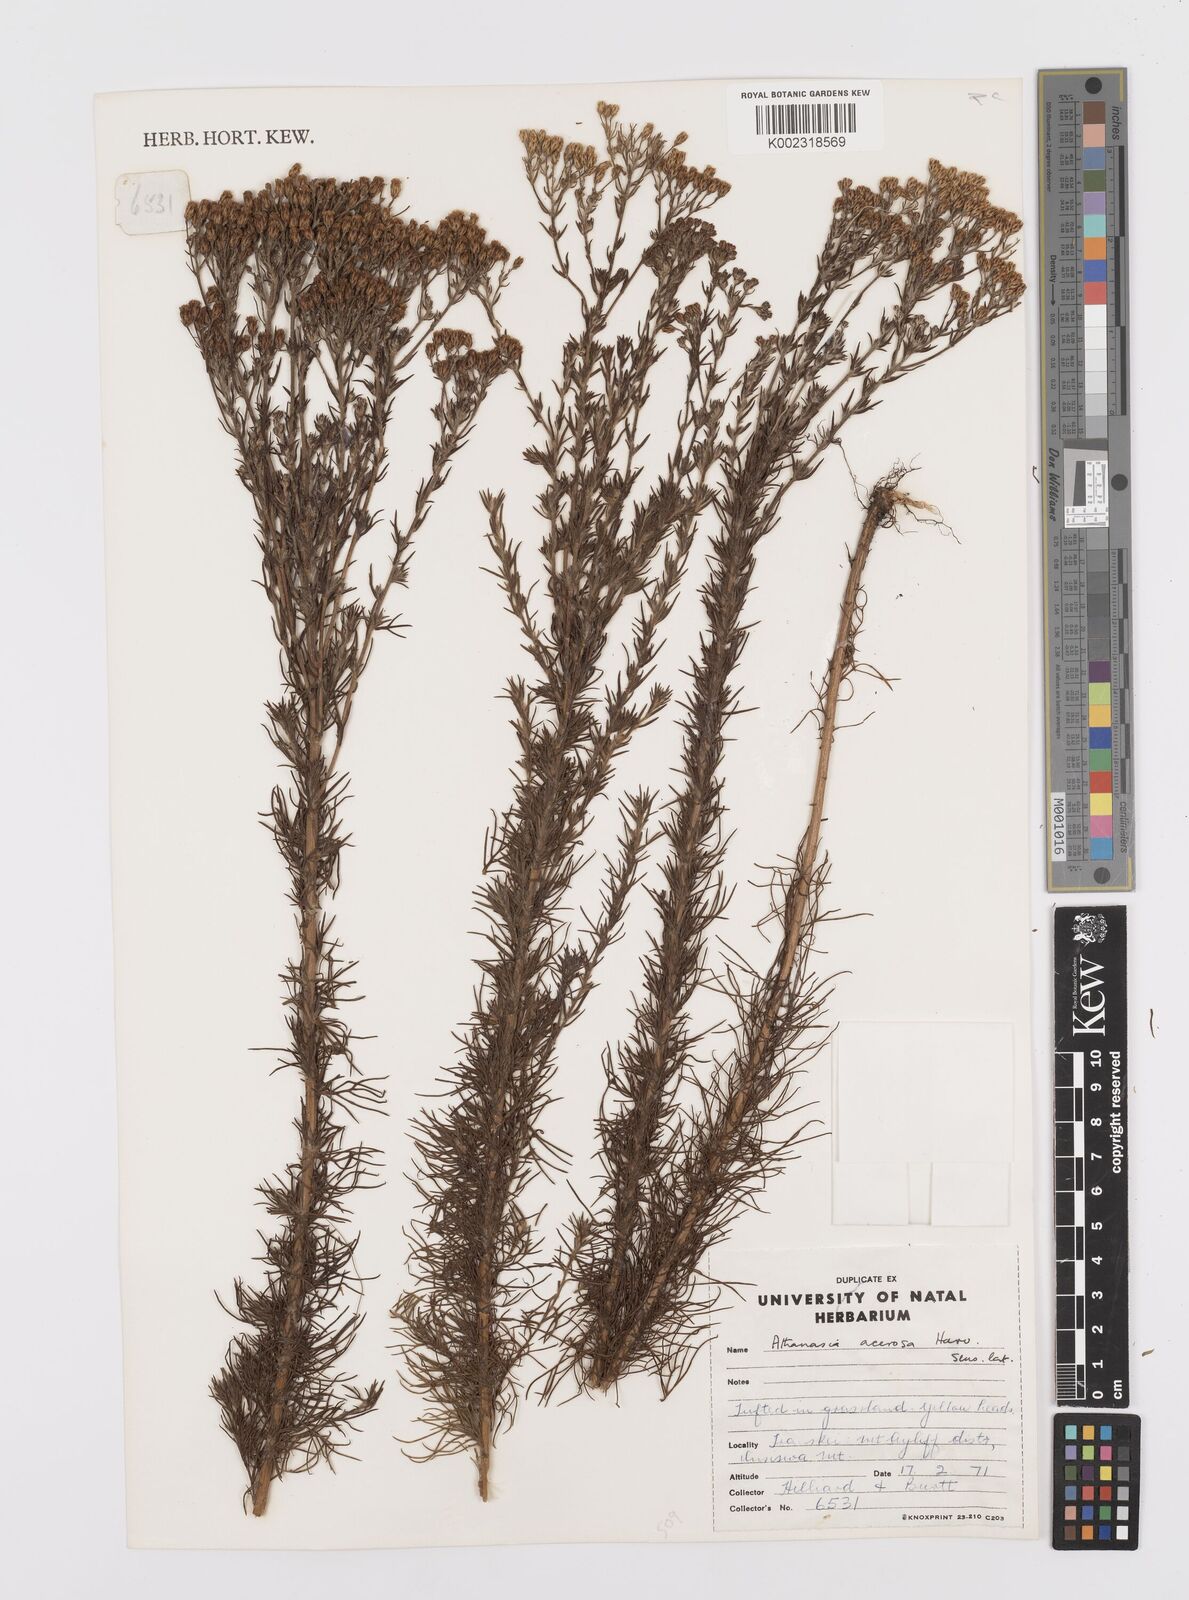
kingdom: Plantae
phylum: Tracheophyta
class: Magnoliopsida
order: Asterales
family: Asteraceae
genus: Phymaspermum
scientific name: Phymaspermum acerosum
